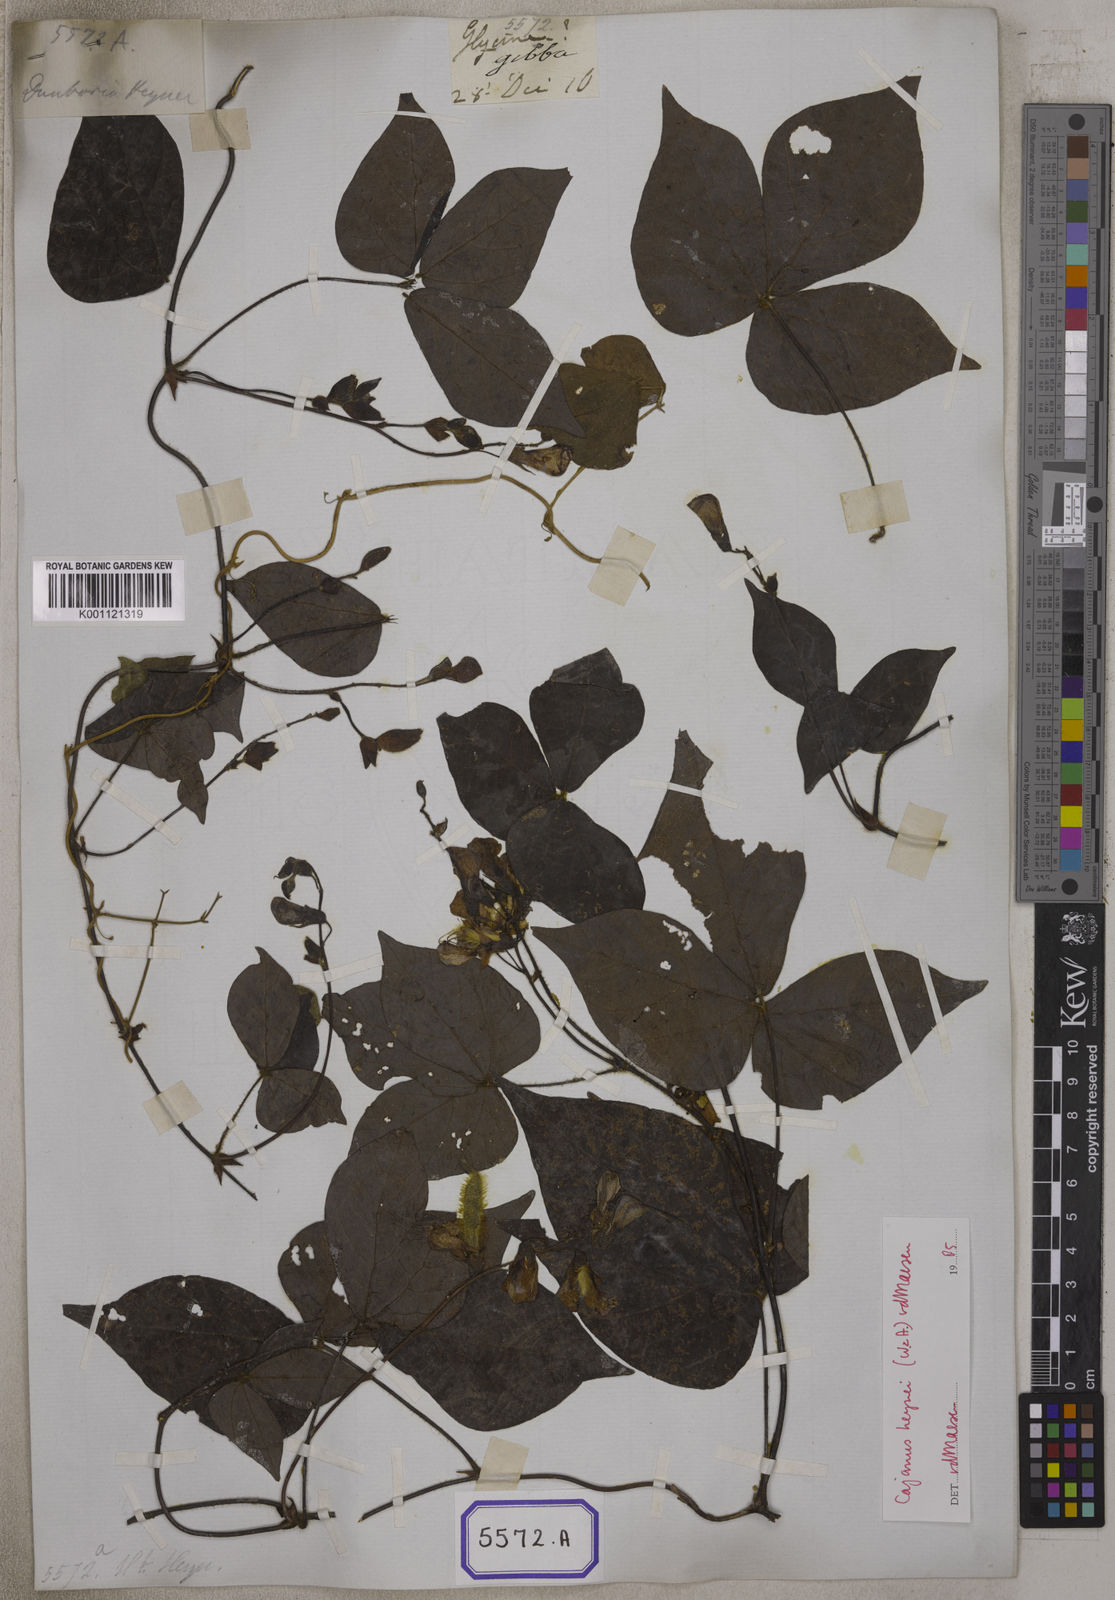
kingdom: Plantae
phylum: Tracheophyta
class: Magnoliopsida
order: Fabales
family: Fabaceae
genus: Cajanus
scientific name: Cajanus heynei
